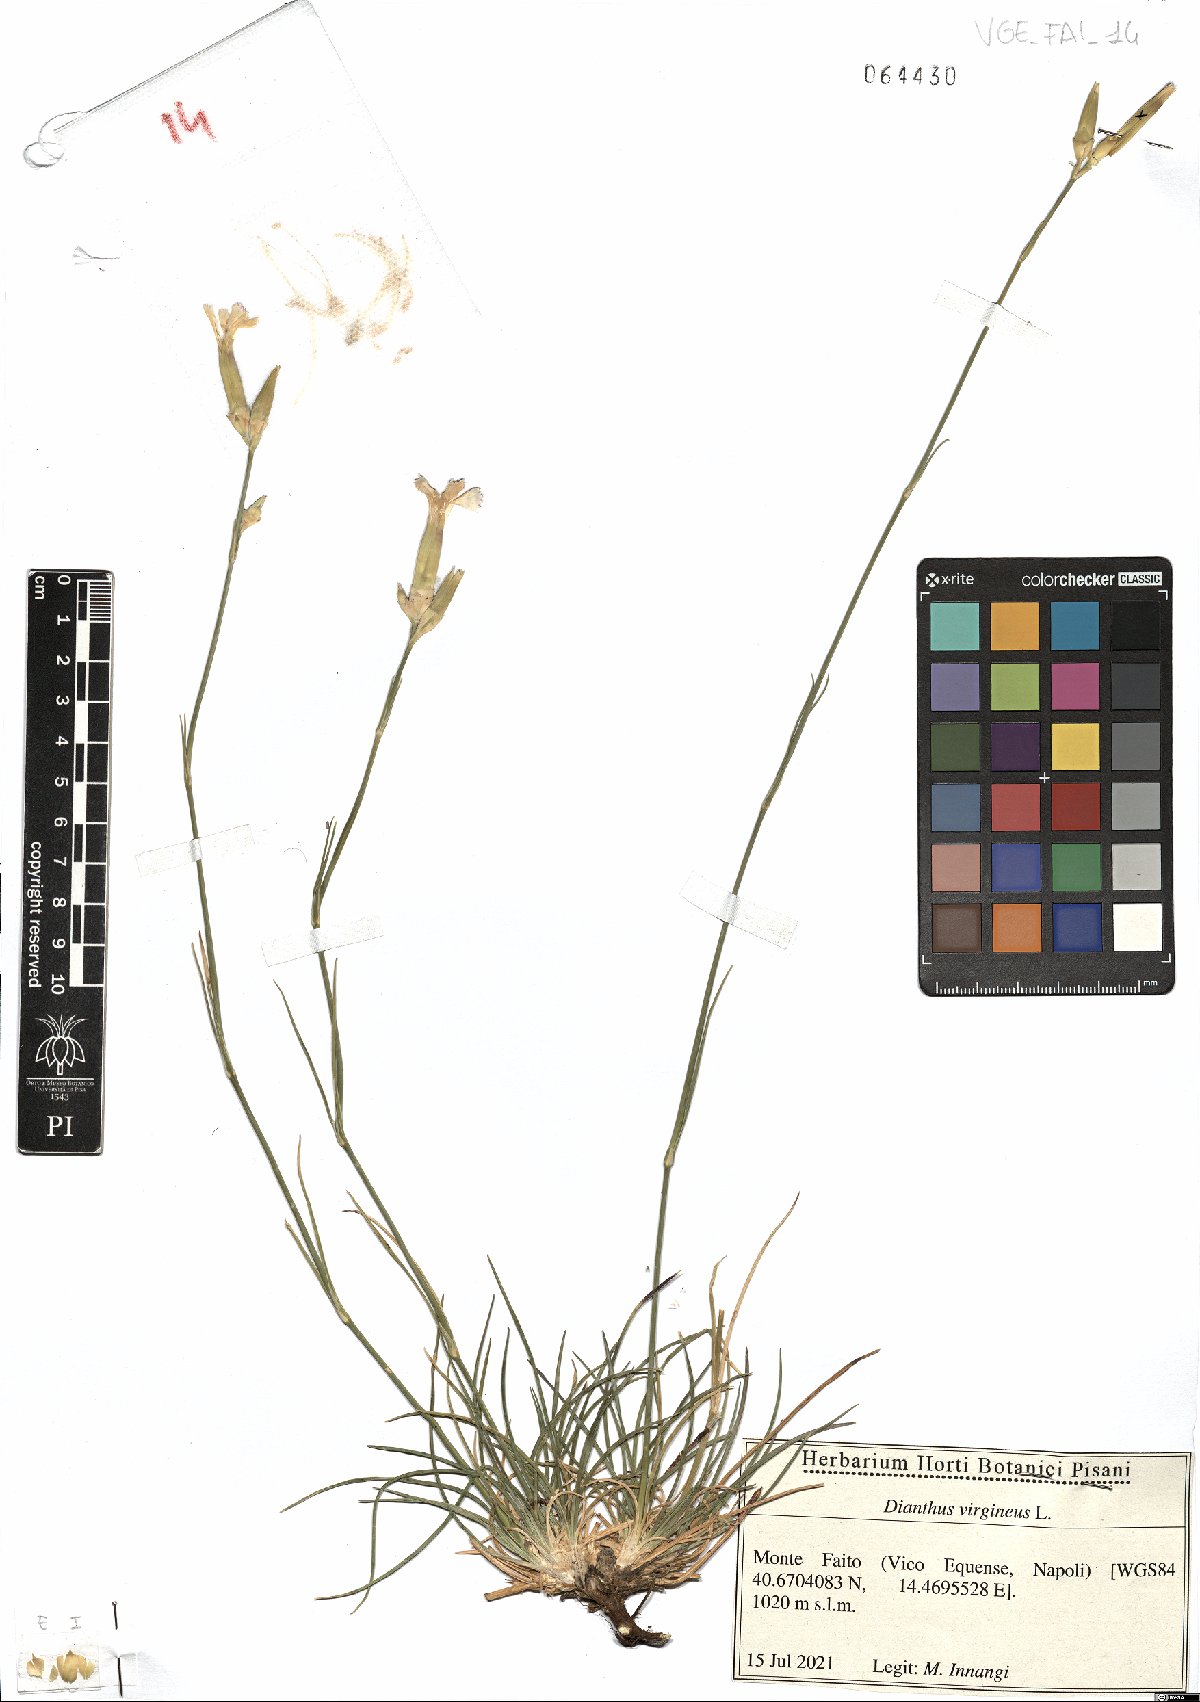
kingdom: Plantae
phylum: Tracheophyta
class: Magnoliopsida
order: Caryophyllales
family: Caryophyllaceae
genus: Dianthus
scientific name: Dianthus virgineus
